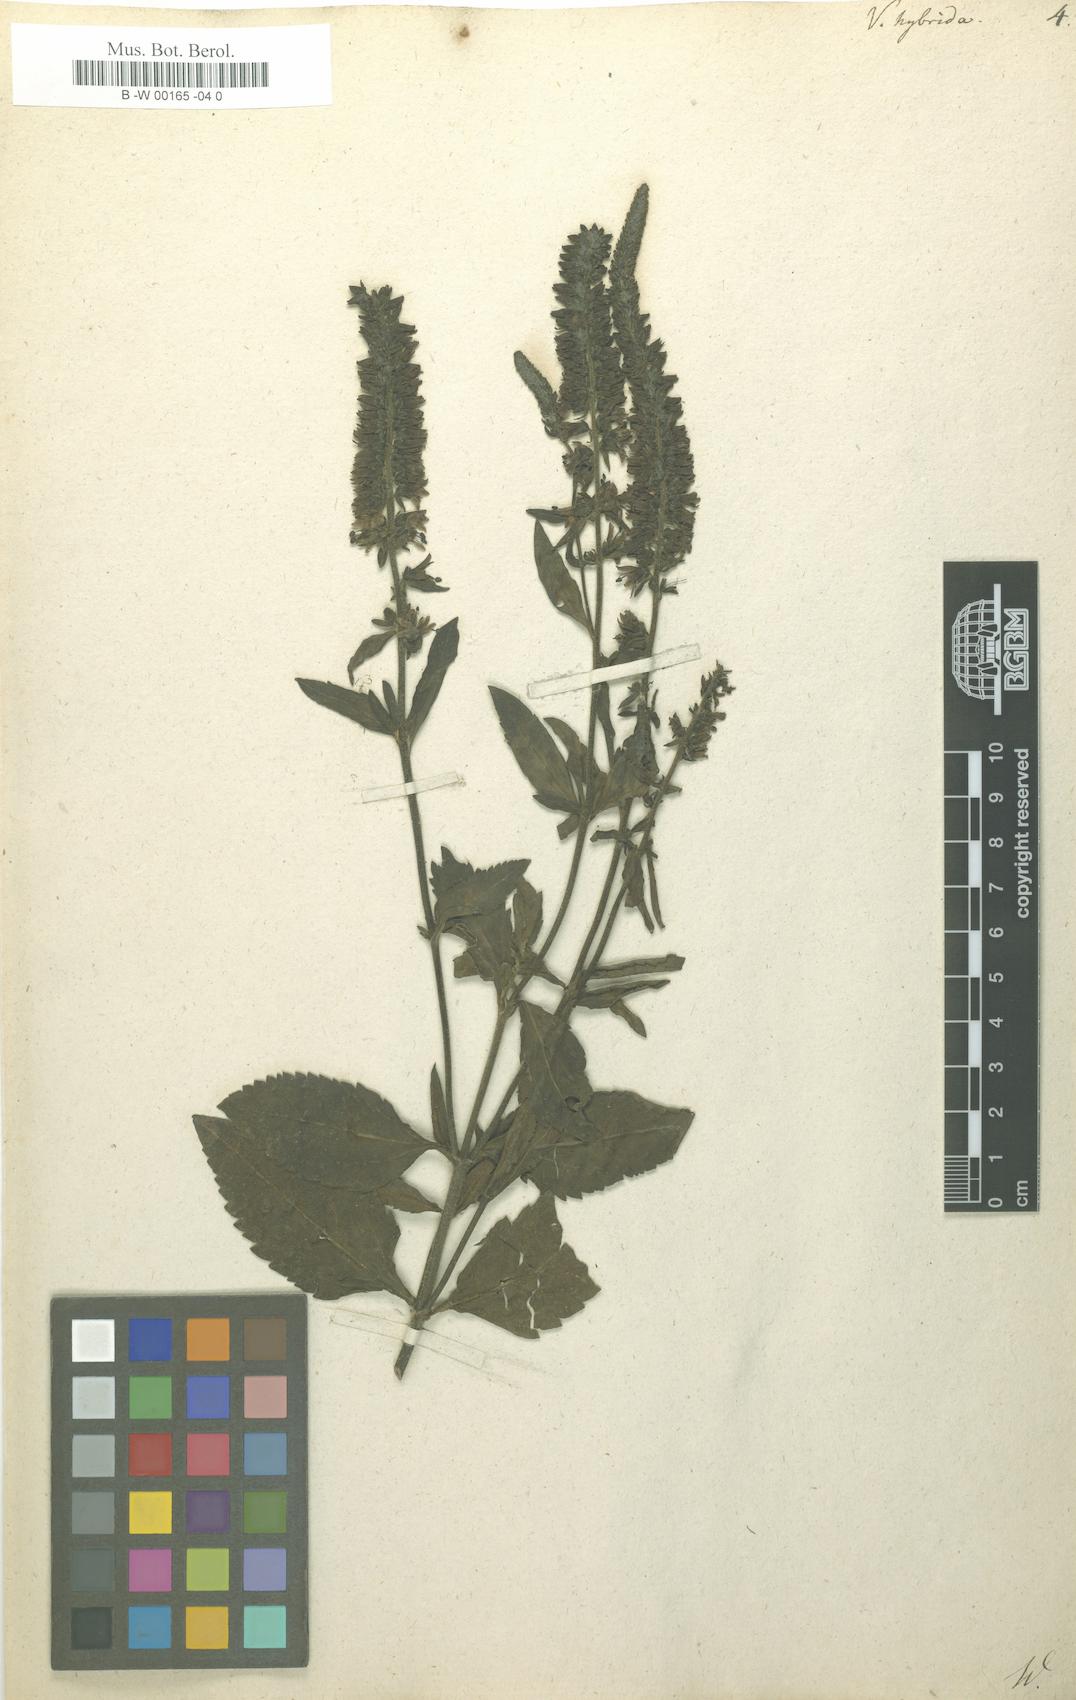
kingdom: Plantae
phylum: Tracheophyta
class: Magnoliopsida
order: Lamiales
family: Plantaginaceae
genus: Veronica
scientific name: Veronica spicata
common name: Spiked speedwell
